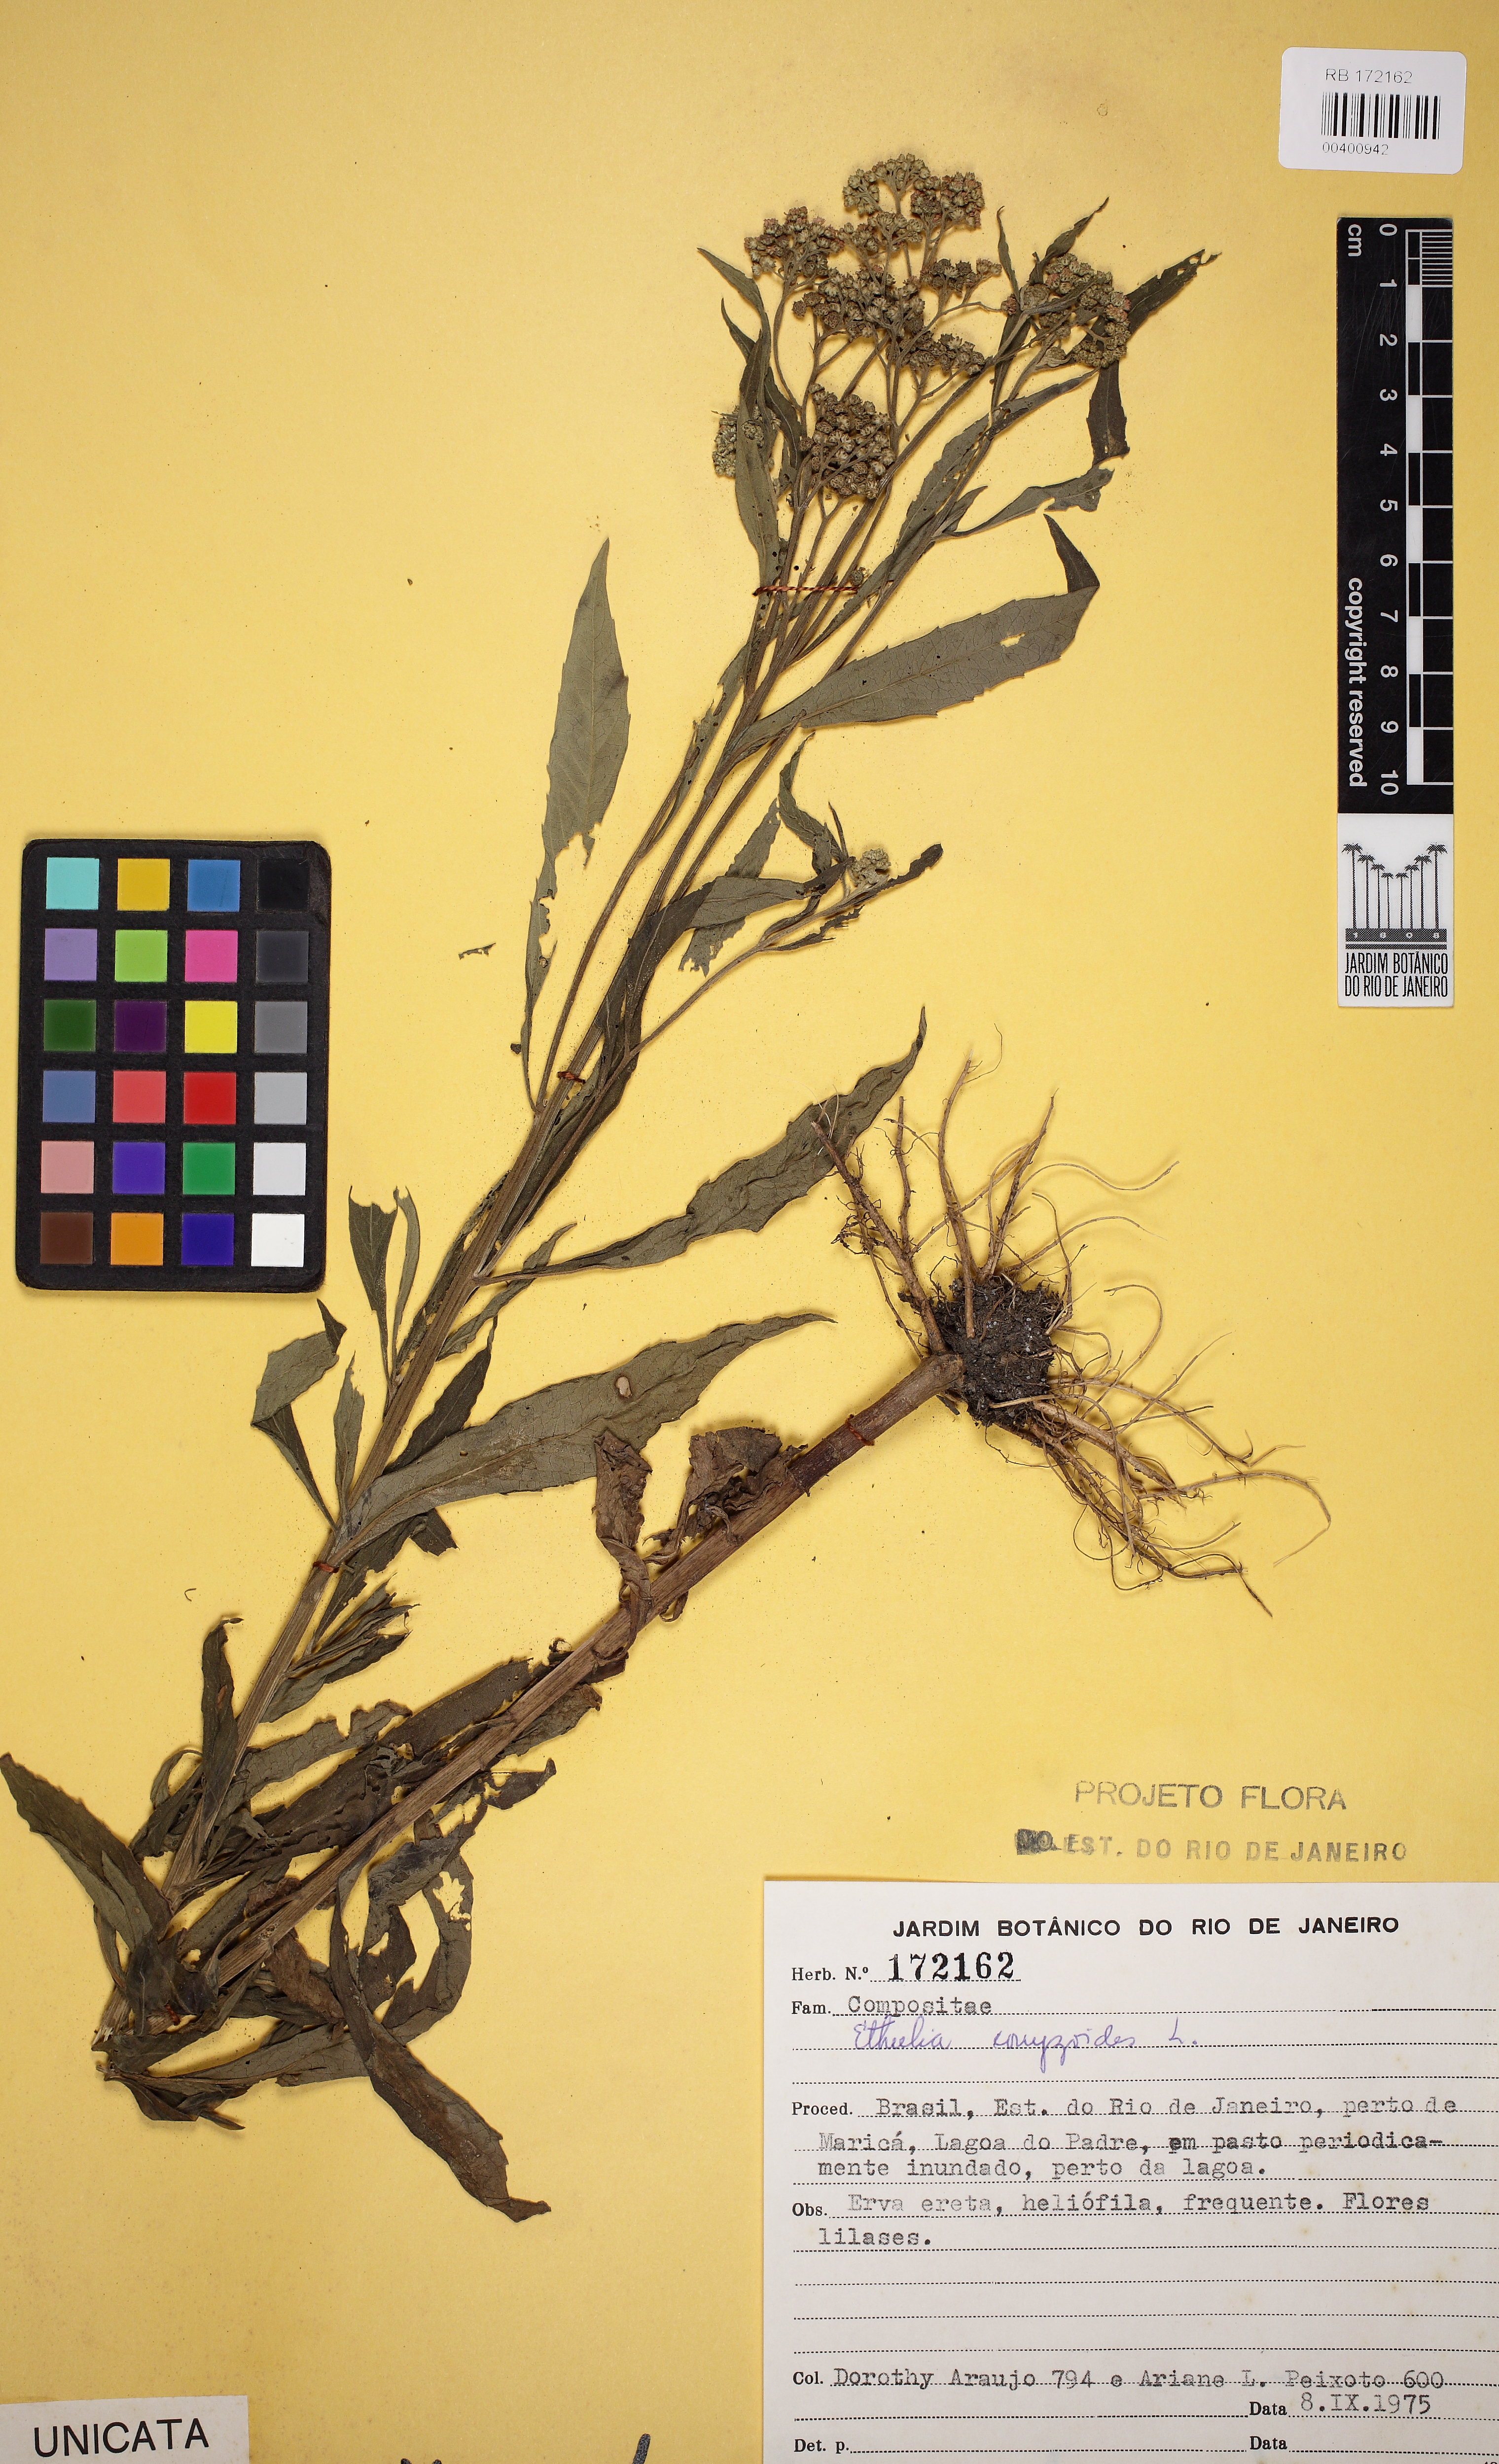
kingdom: Plantae
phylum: Tracheophyta
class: Magnoliopsida
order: Asterales
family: Asteraceae
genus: Ethulia
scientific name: Ethulia conyzoides
